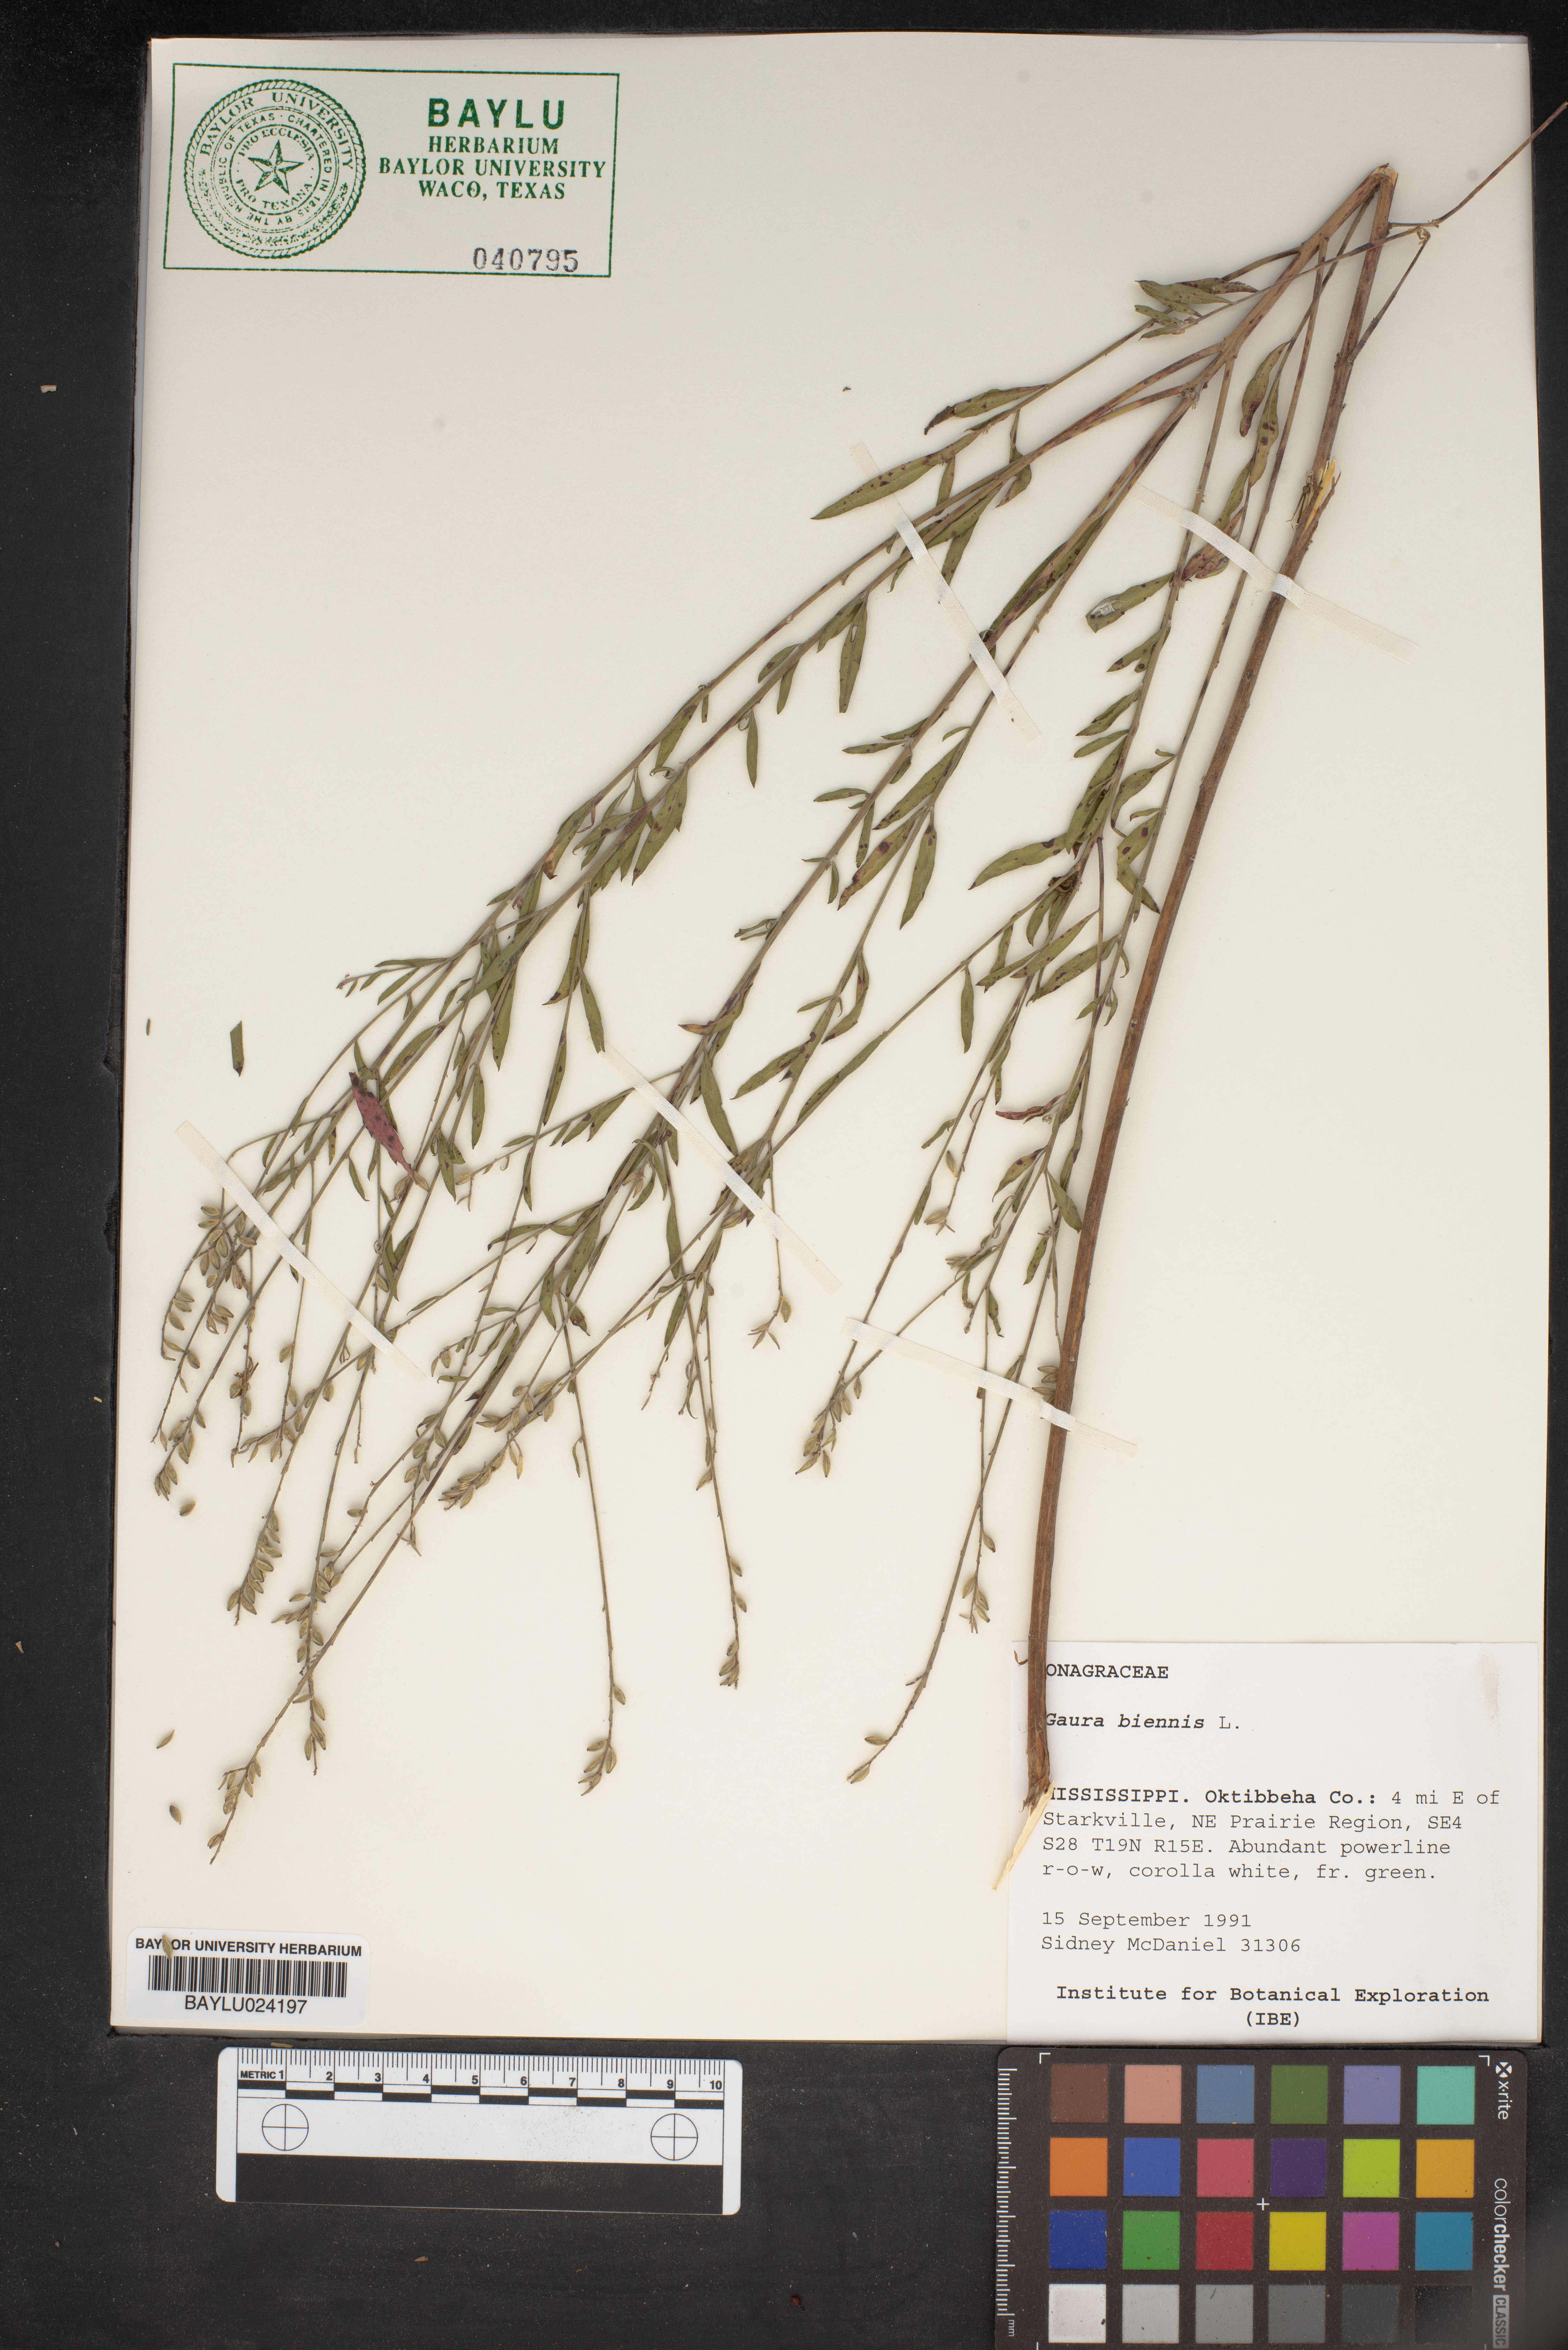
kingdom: Plantae
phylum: Tracheophyta
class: Magnoliopsida
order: Myrtales
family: Onagraceae
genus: Oenothera
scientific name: Oenothera gaura
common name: Biennial beeblossom
